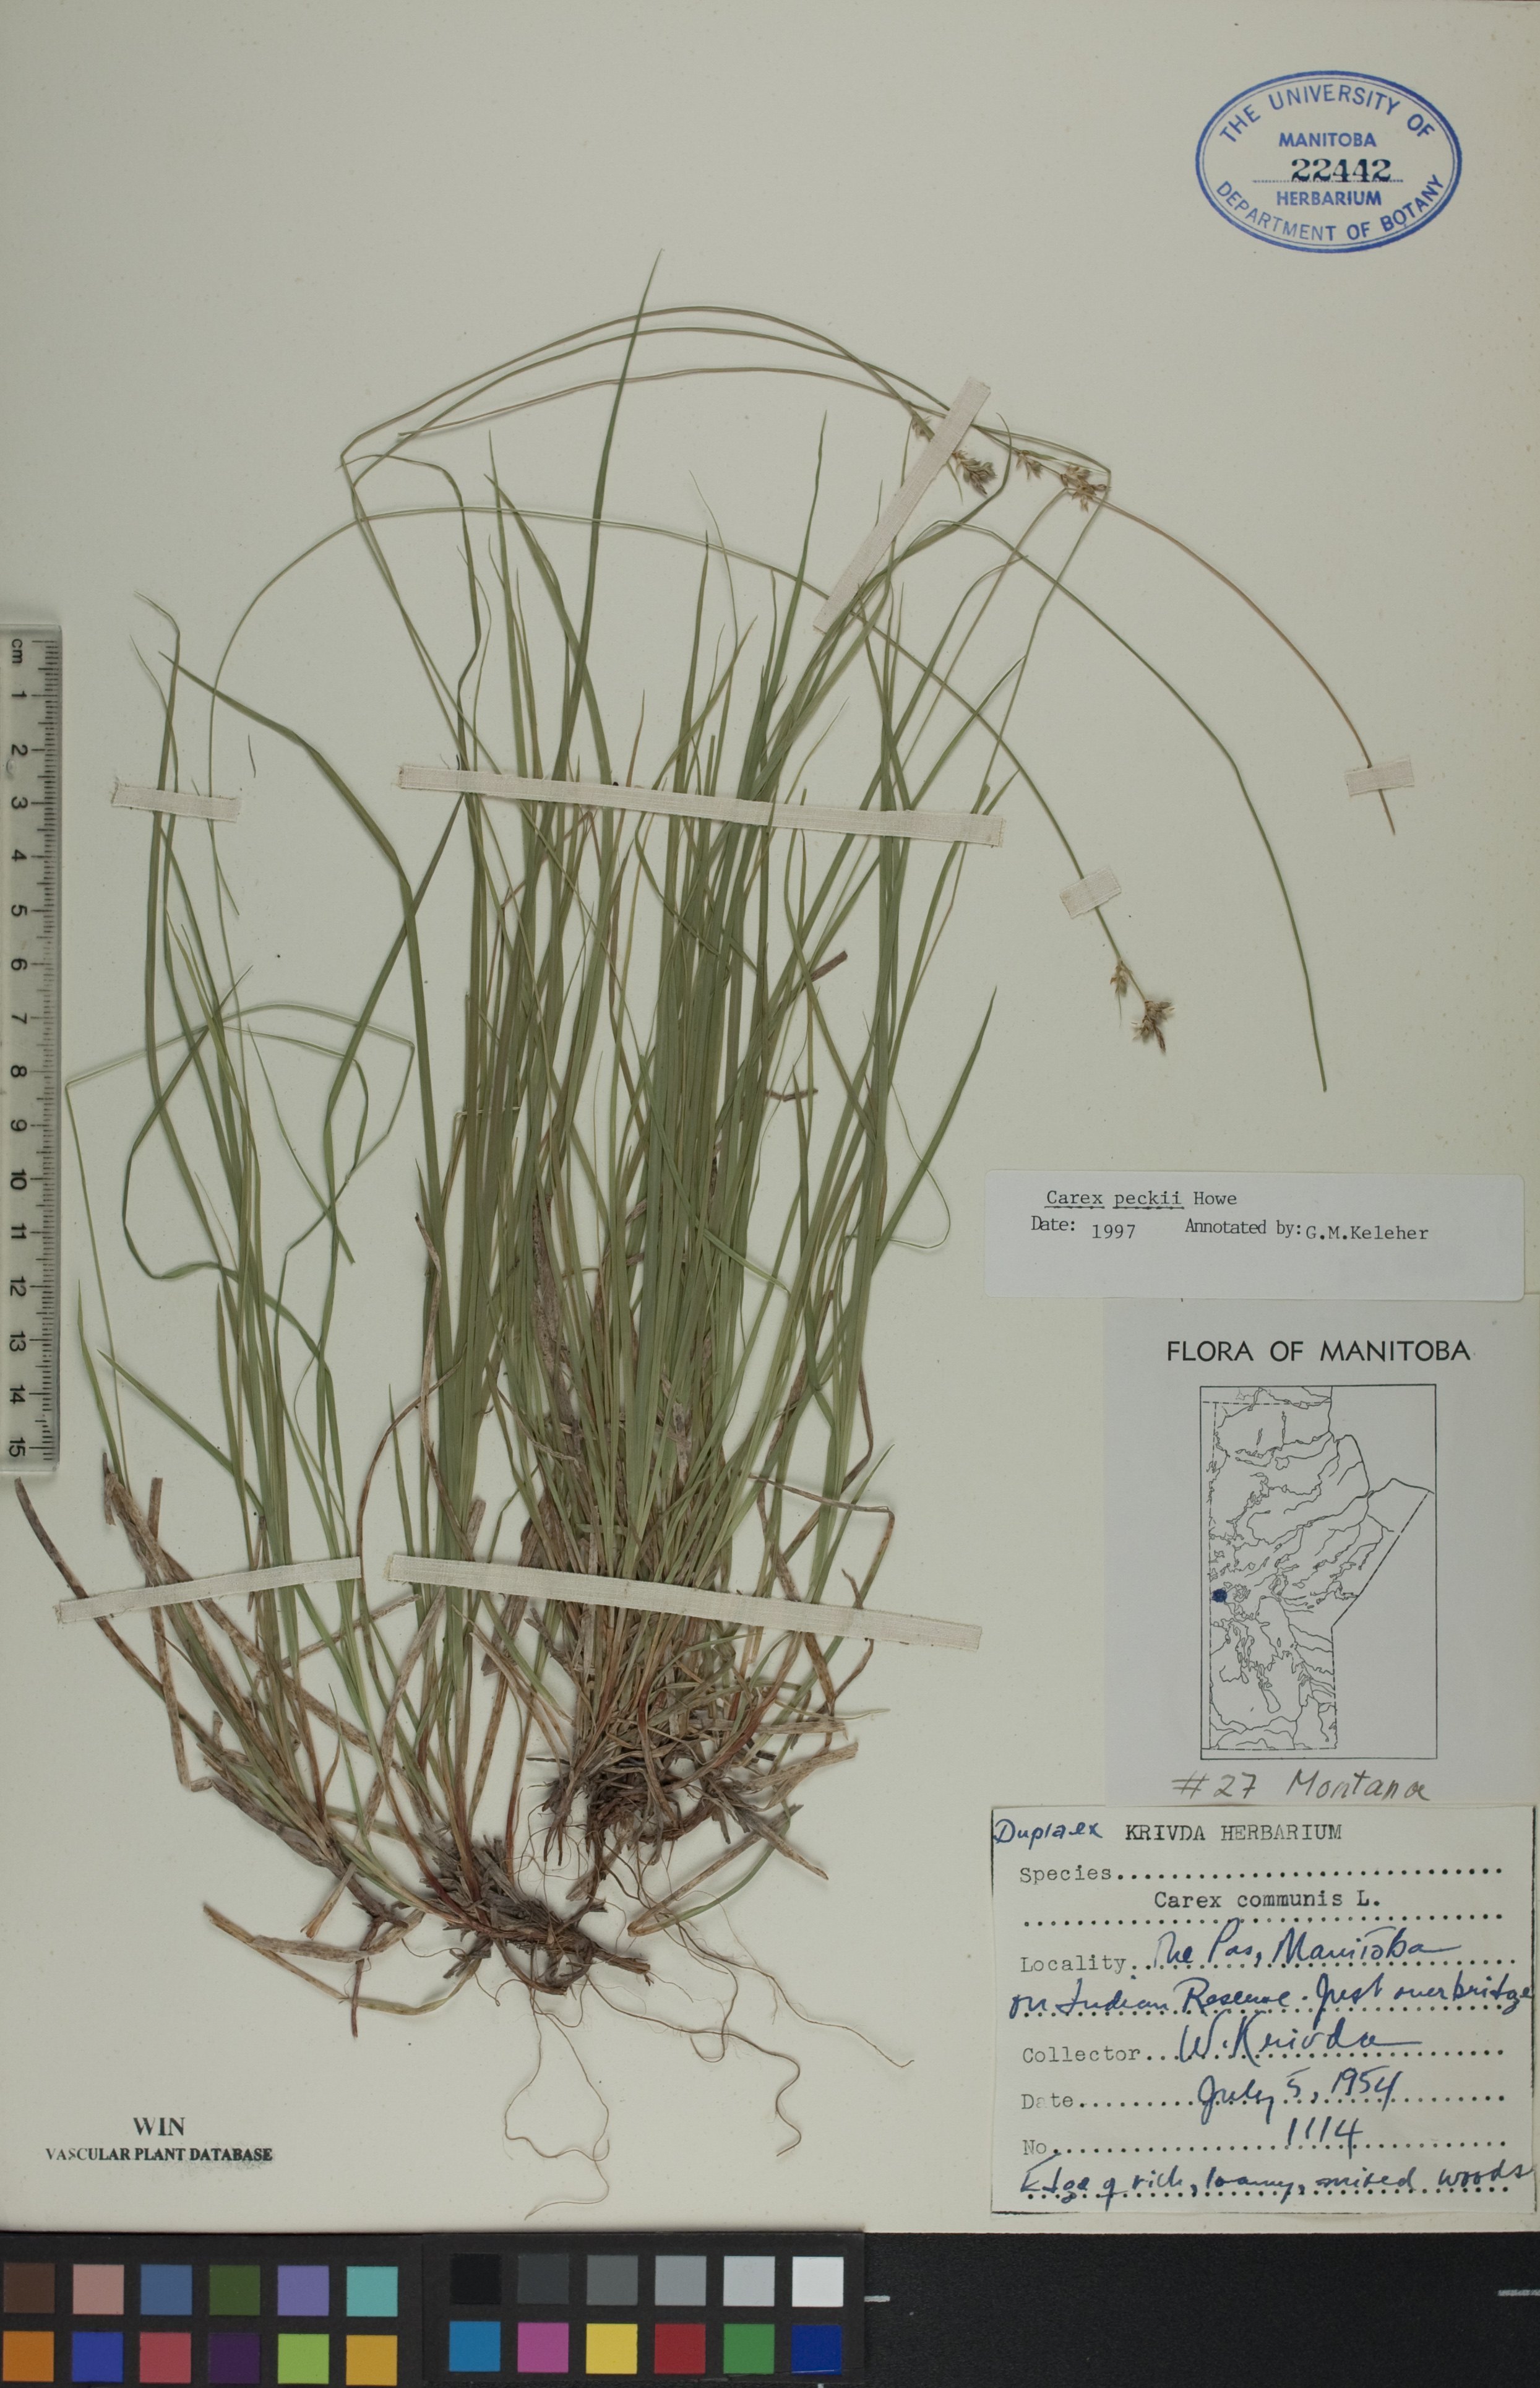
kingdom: Plantae
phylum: Tracheophyta
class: Liliopsida
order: Poales
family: Cyperaceae
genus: Carex
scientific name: Carex peckii
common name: Peck's oak sedge
